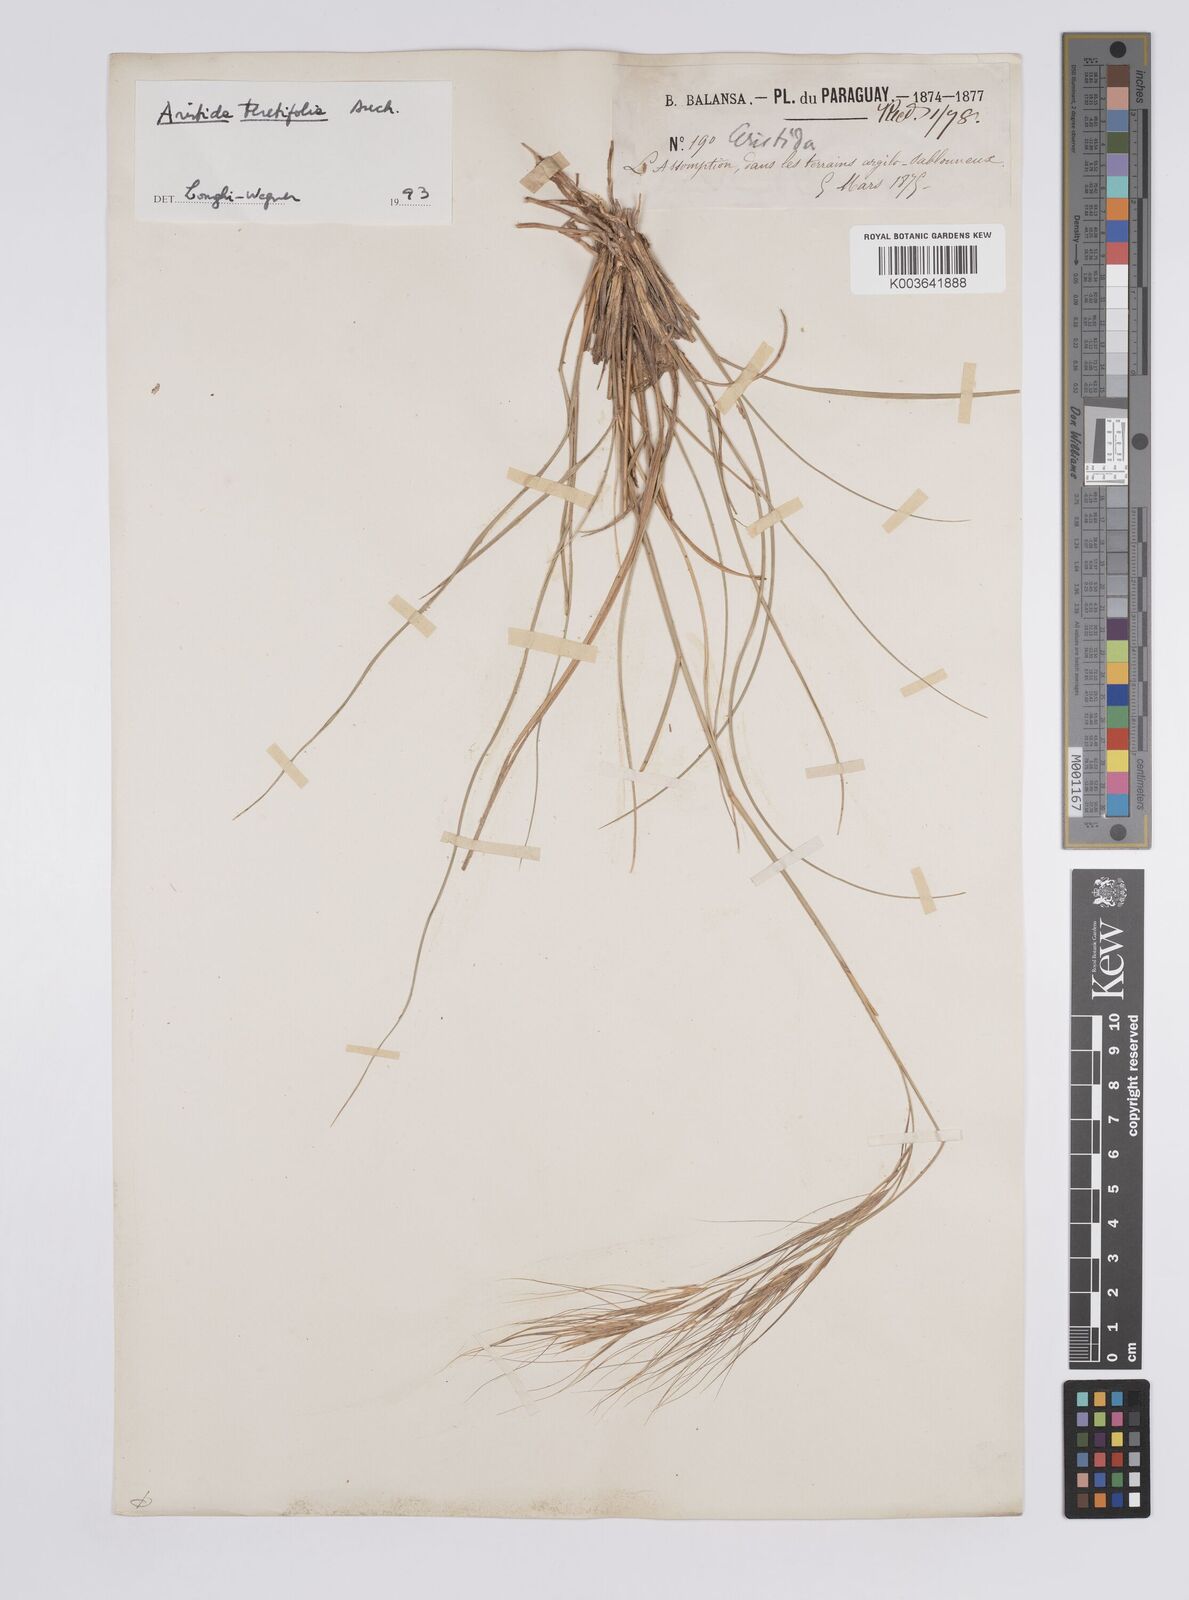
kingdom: Plantae
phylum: Tracheophyta
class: Liliopsida
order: Poales
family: Poaceae
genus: Aristida
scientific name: Aristida teretifolia
